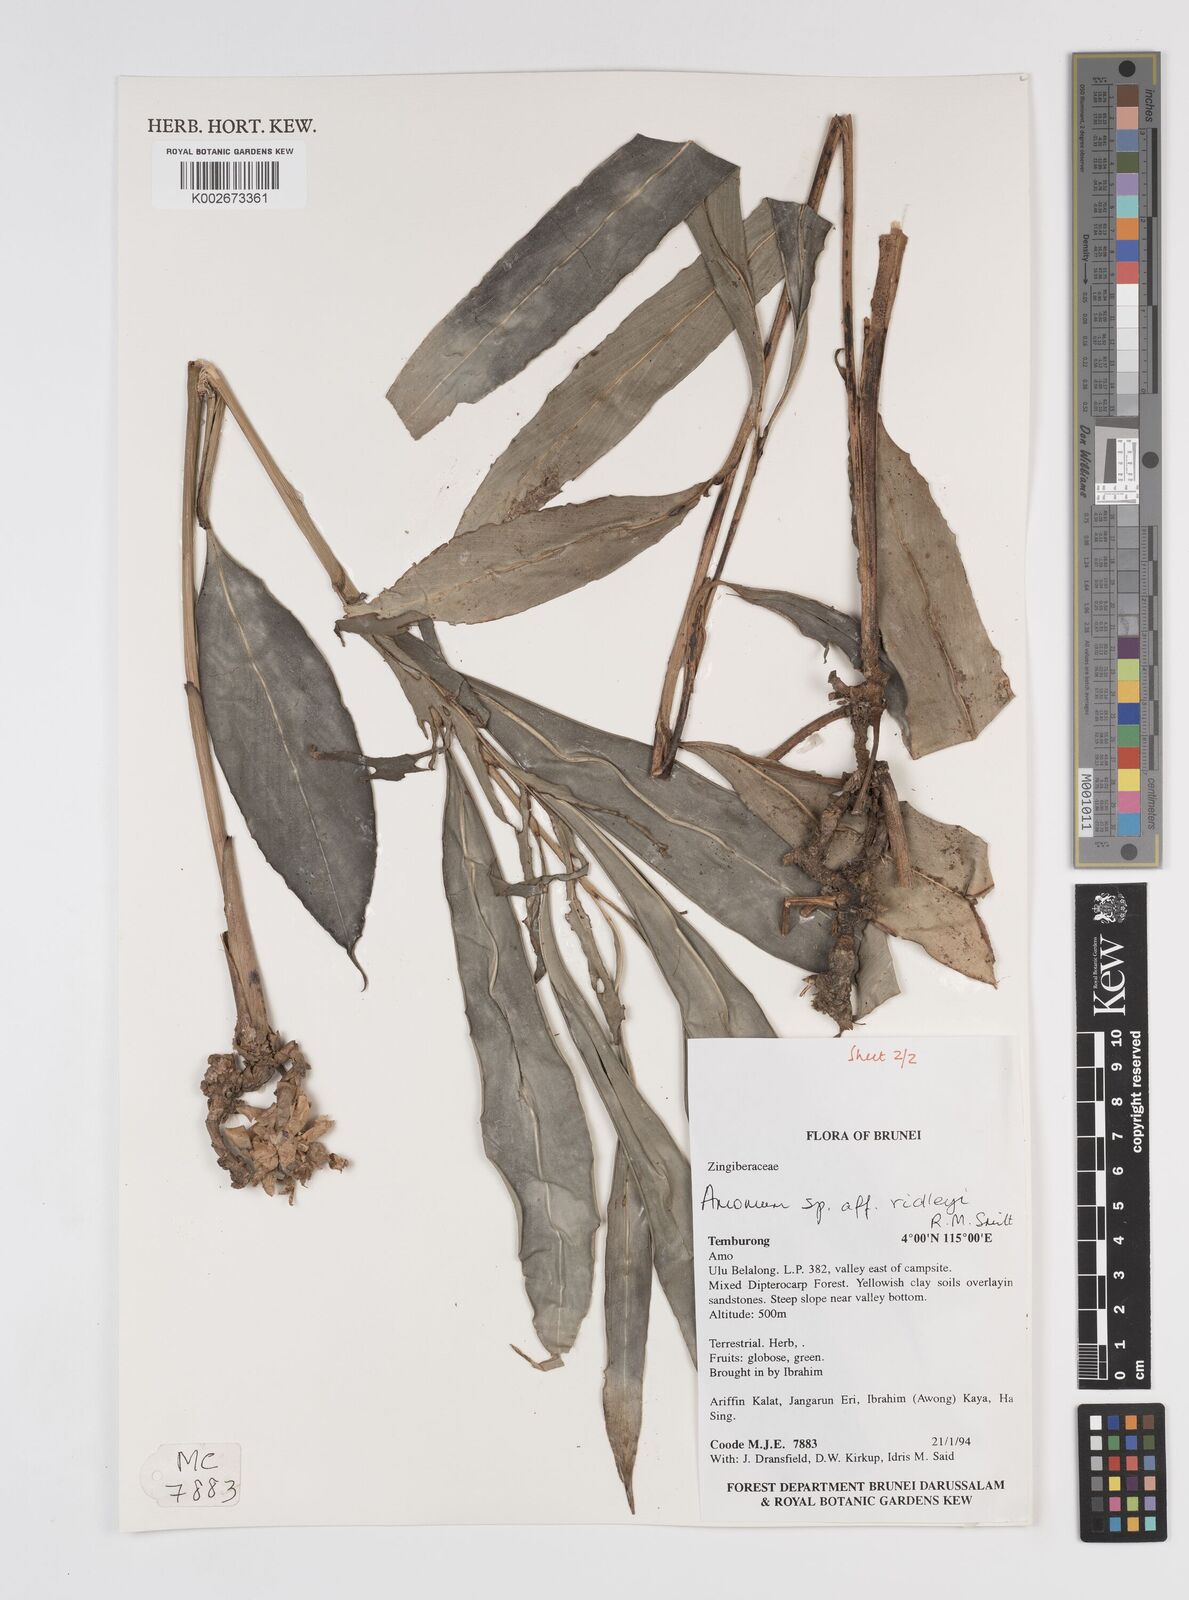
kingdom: Plantae
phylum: Tracheophyta
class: Liliopsida
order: Zingiberales
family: Zingiberaceae
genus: Amomum
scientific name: Amomum
